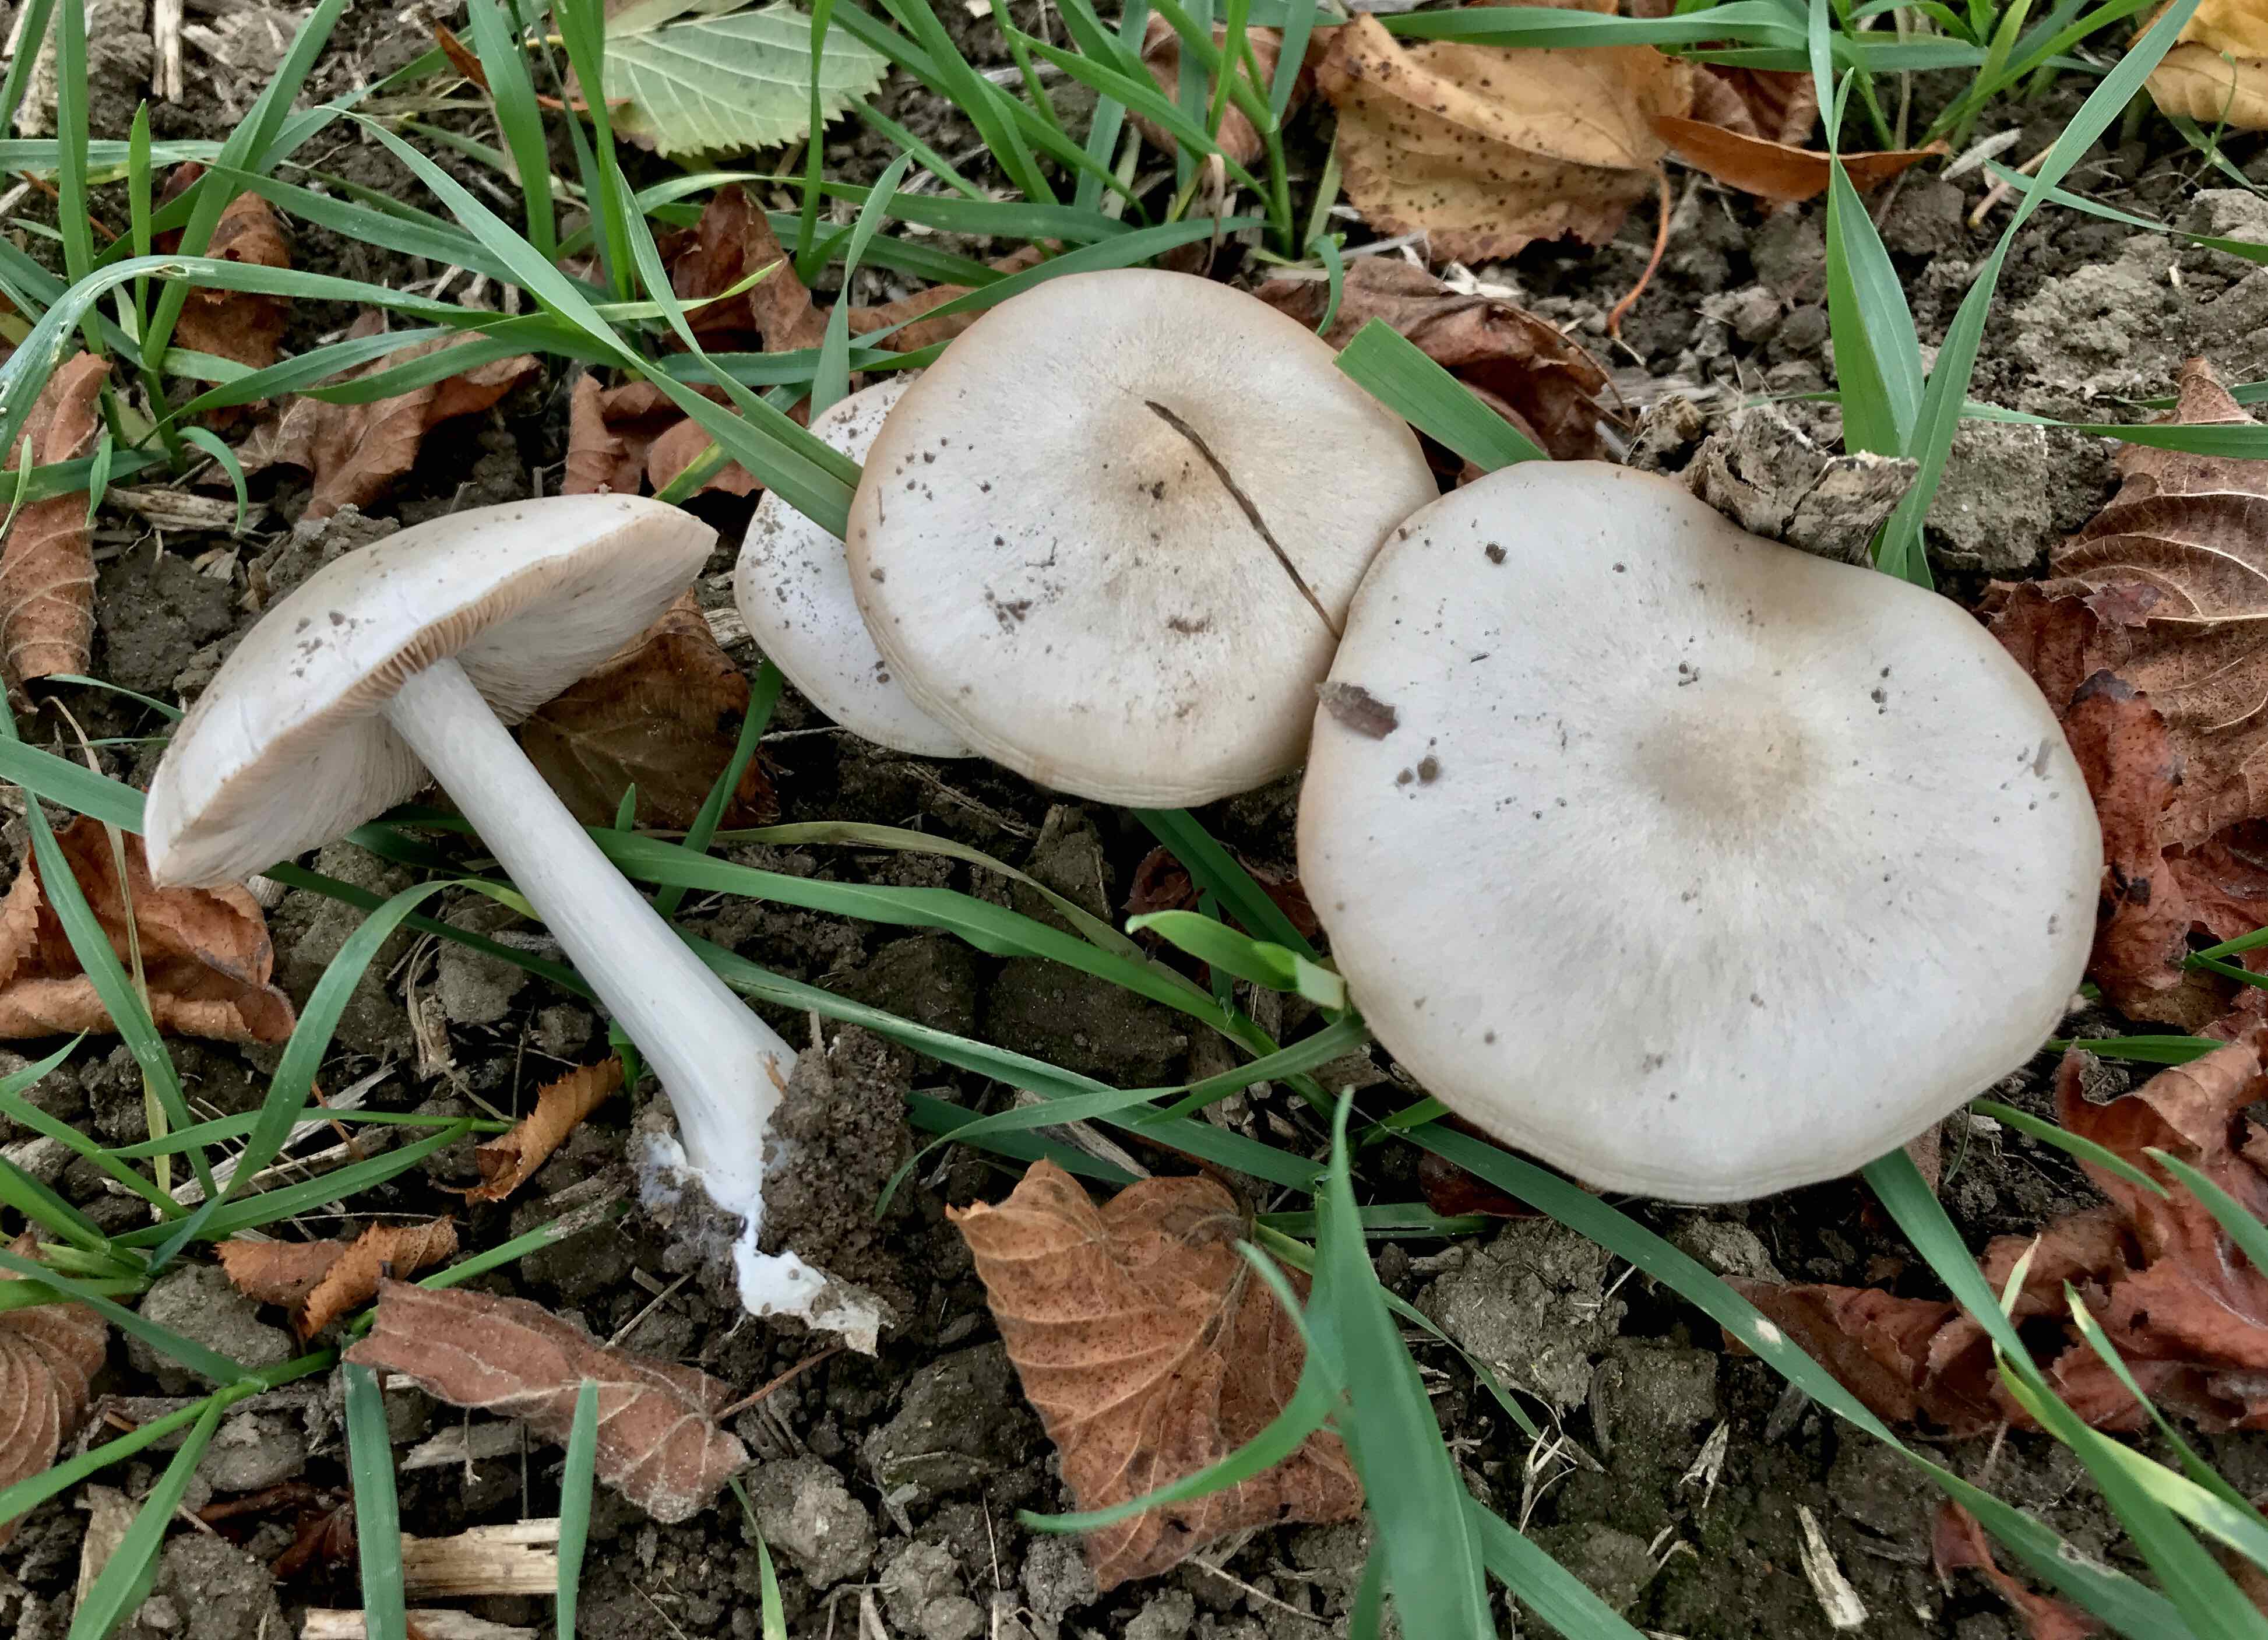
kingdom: Fungi
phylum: Basidiomycota
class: Agaricomycetes
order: Agaricales
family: Pluteaceae
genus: Volvopluteus
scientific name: Volvopluteus gloiocephalus
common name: høj posesvamp
